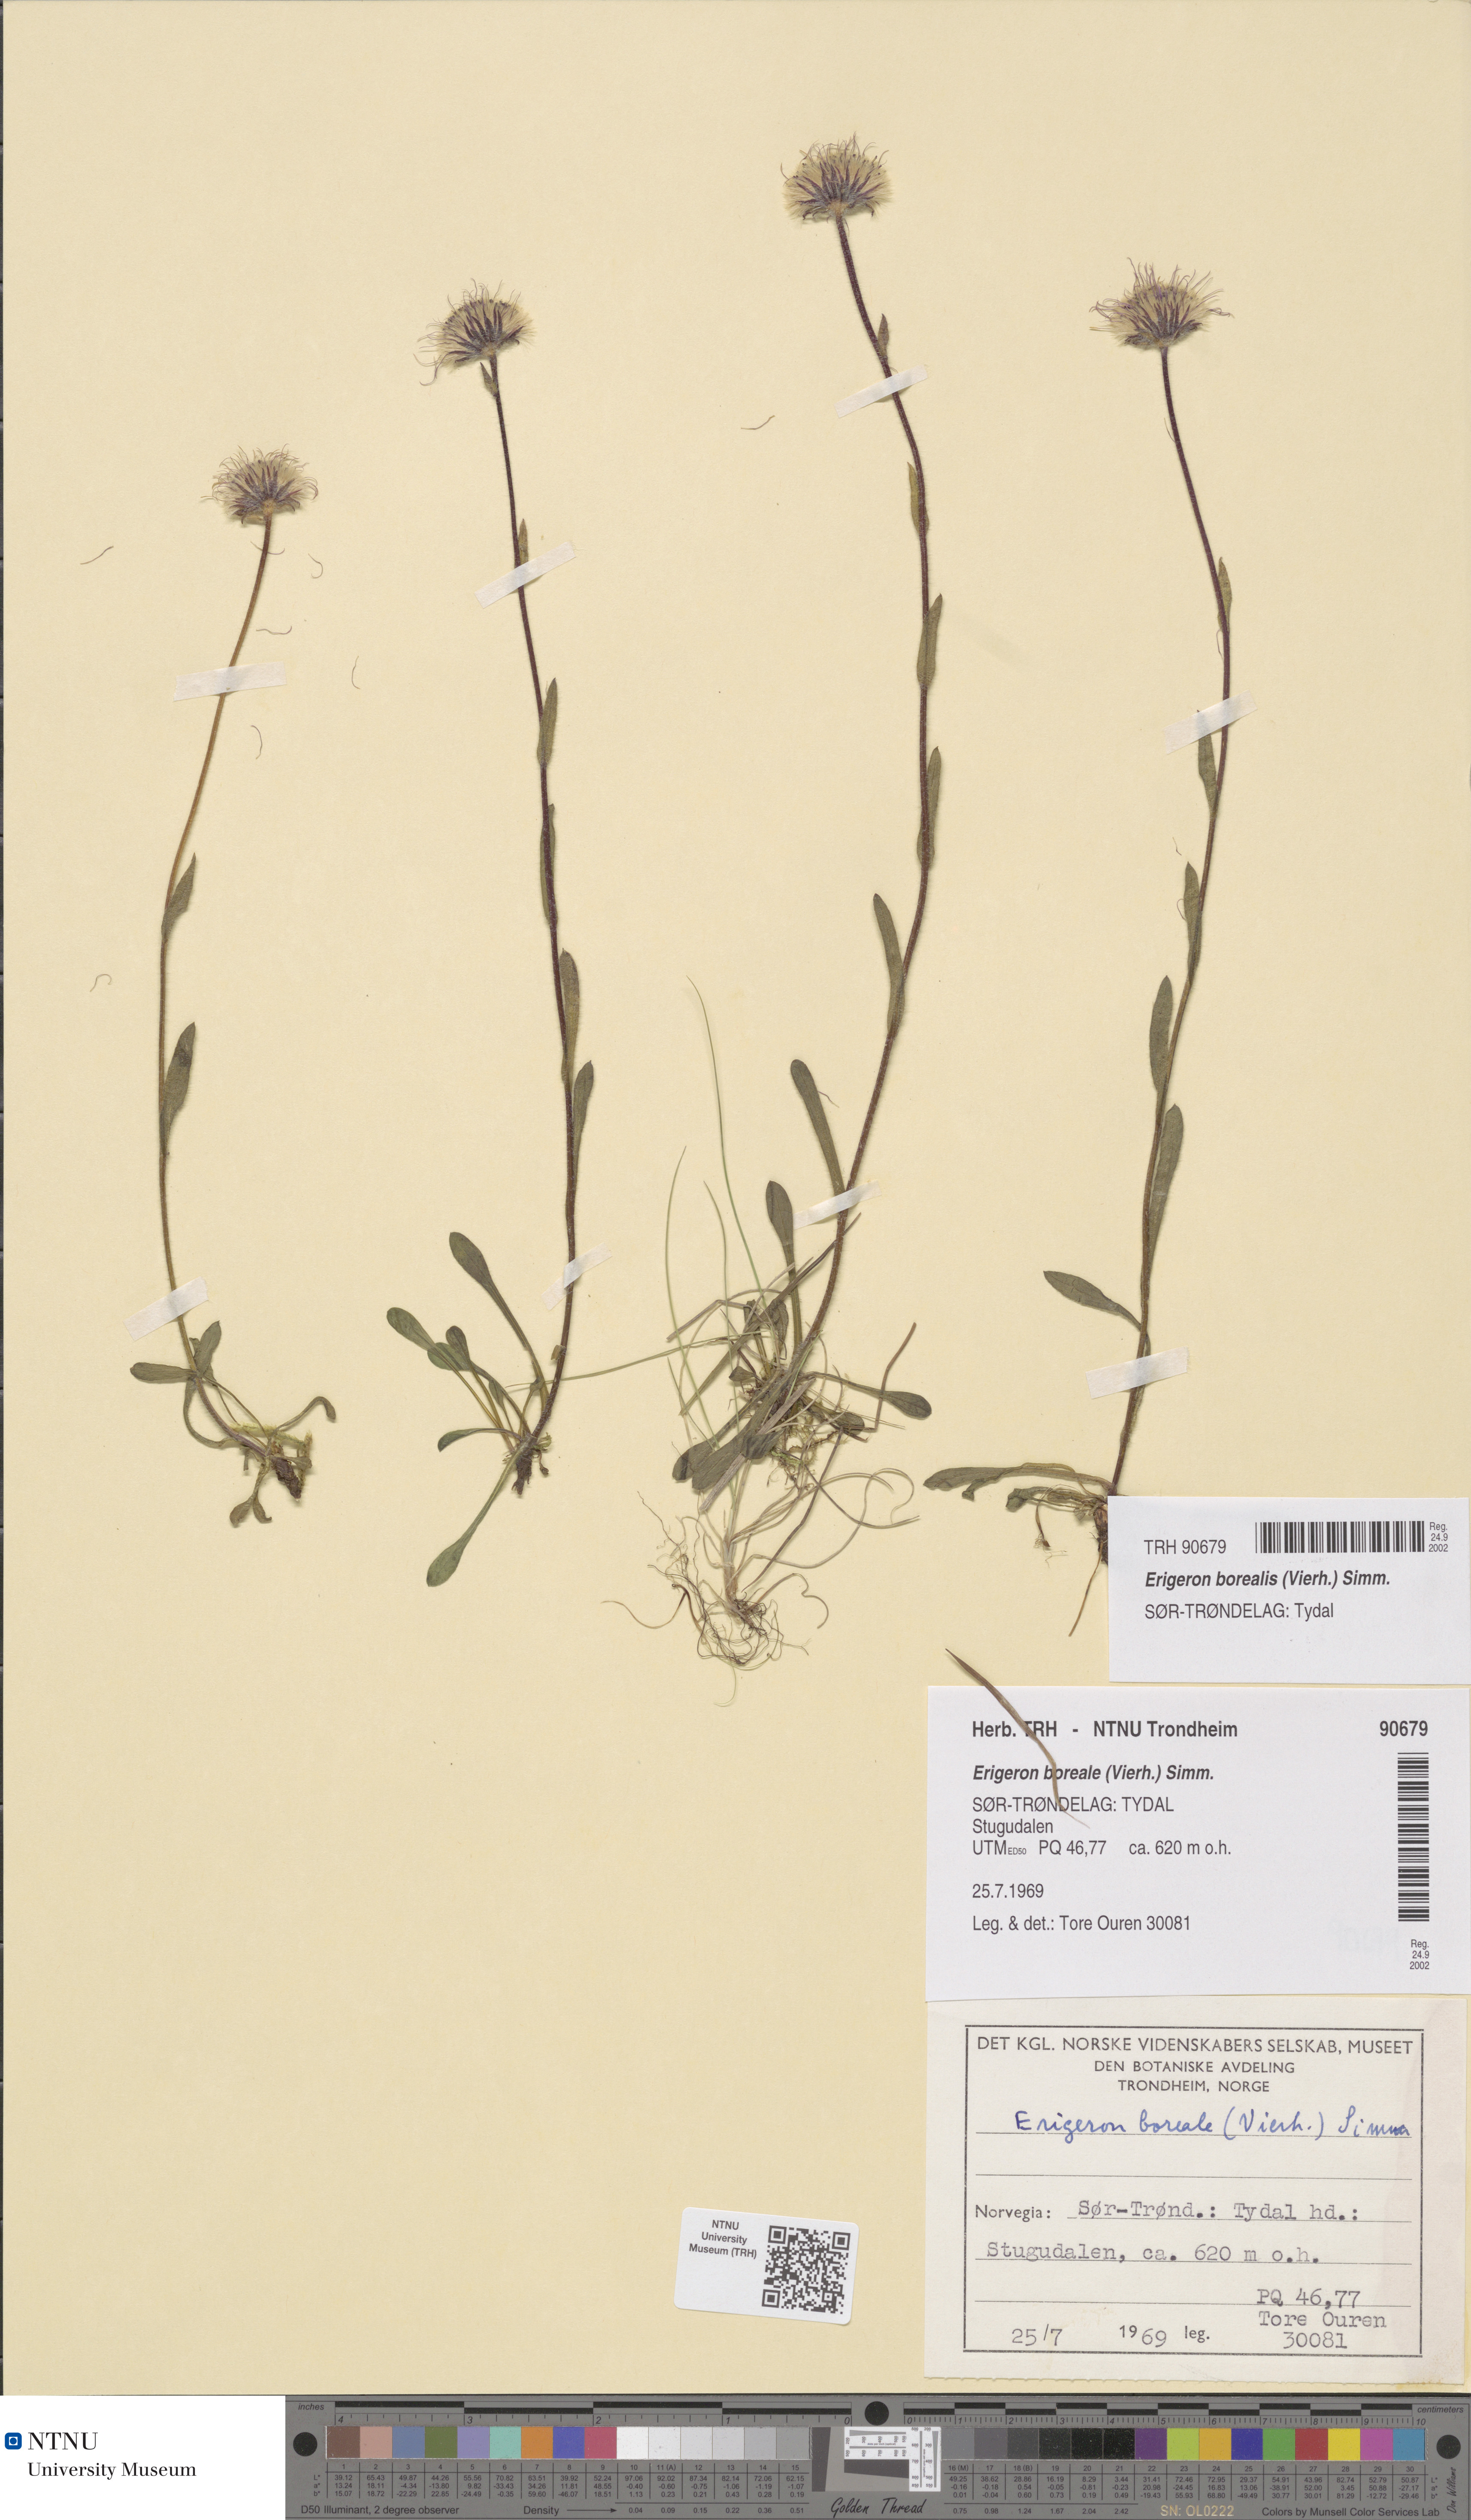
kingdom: Plantae
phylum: Tracheophyta
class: Magnoliopsida
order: Asterales
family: Asteraceae
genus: Erigeron
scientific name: Erigeron borealis
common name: Alpine fleabane
